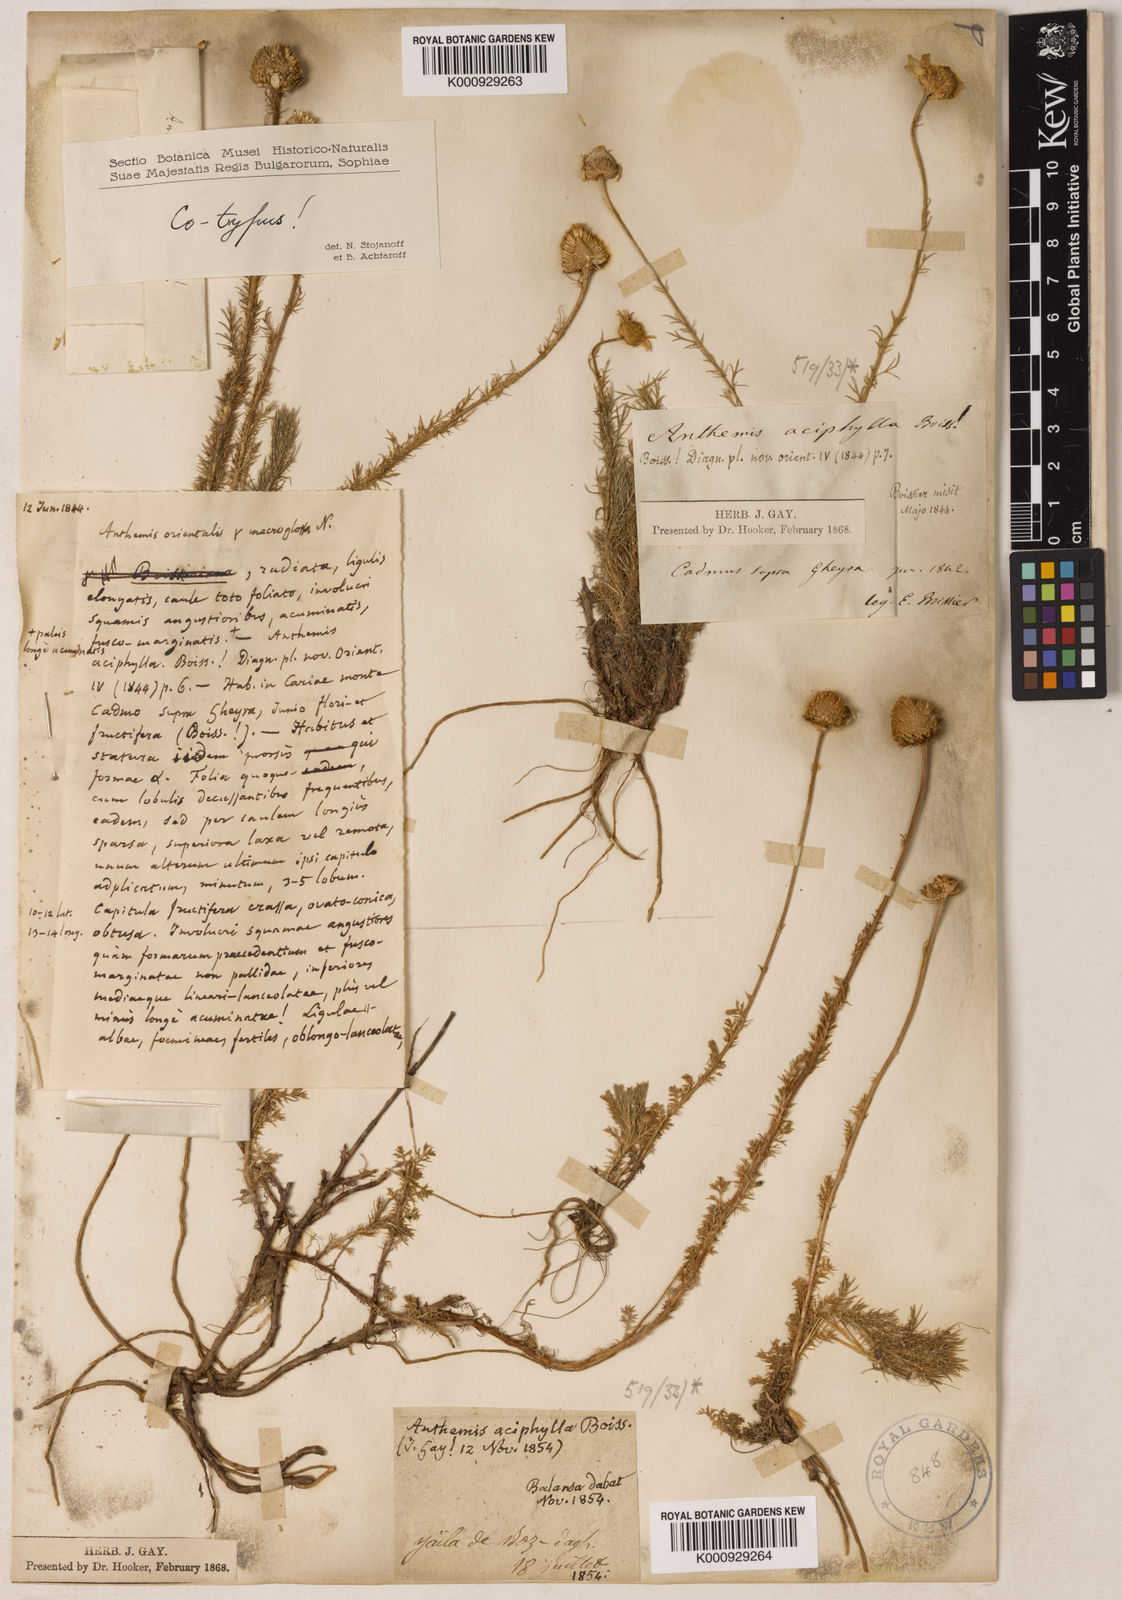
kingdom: Plantae
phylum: Tracheophyta
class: Magnoliopsida
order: Asterales
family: Asteraceae
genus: Anthemis
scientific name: Anthemis aciphylla
